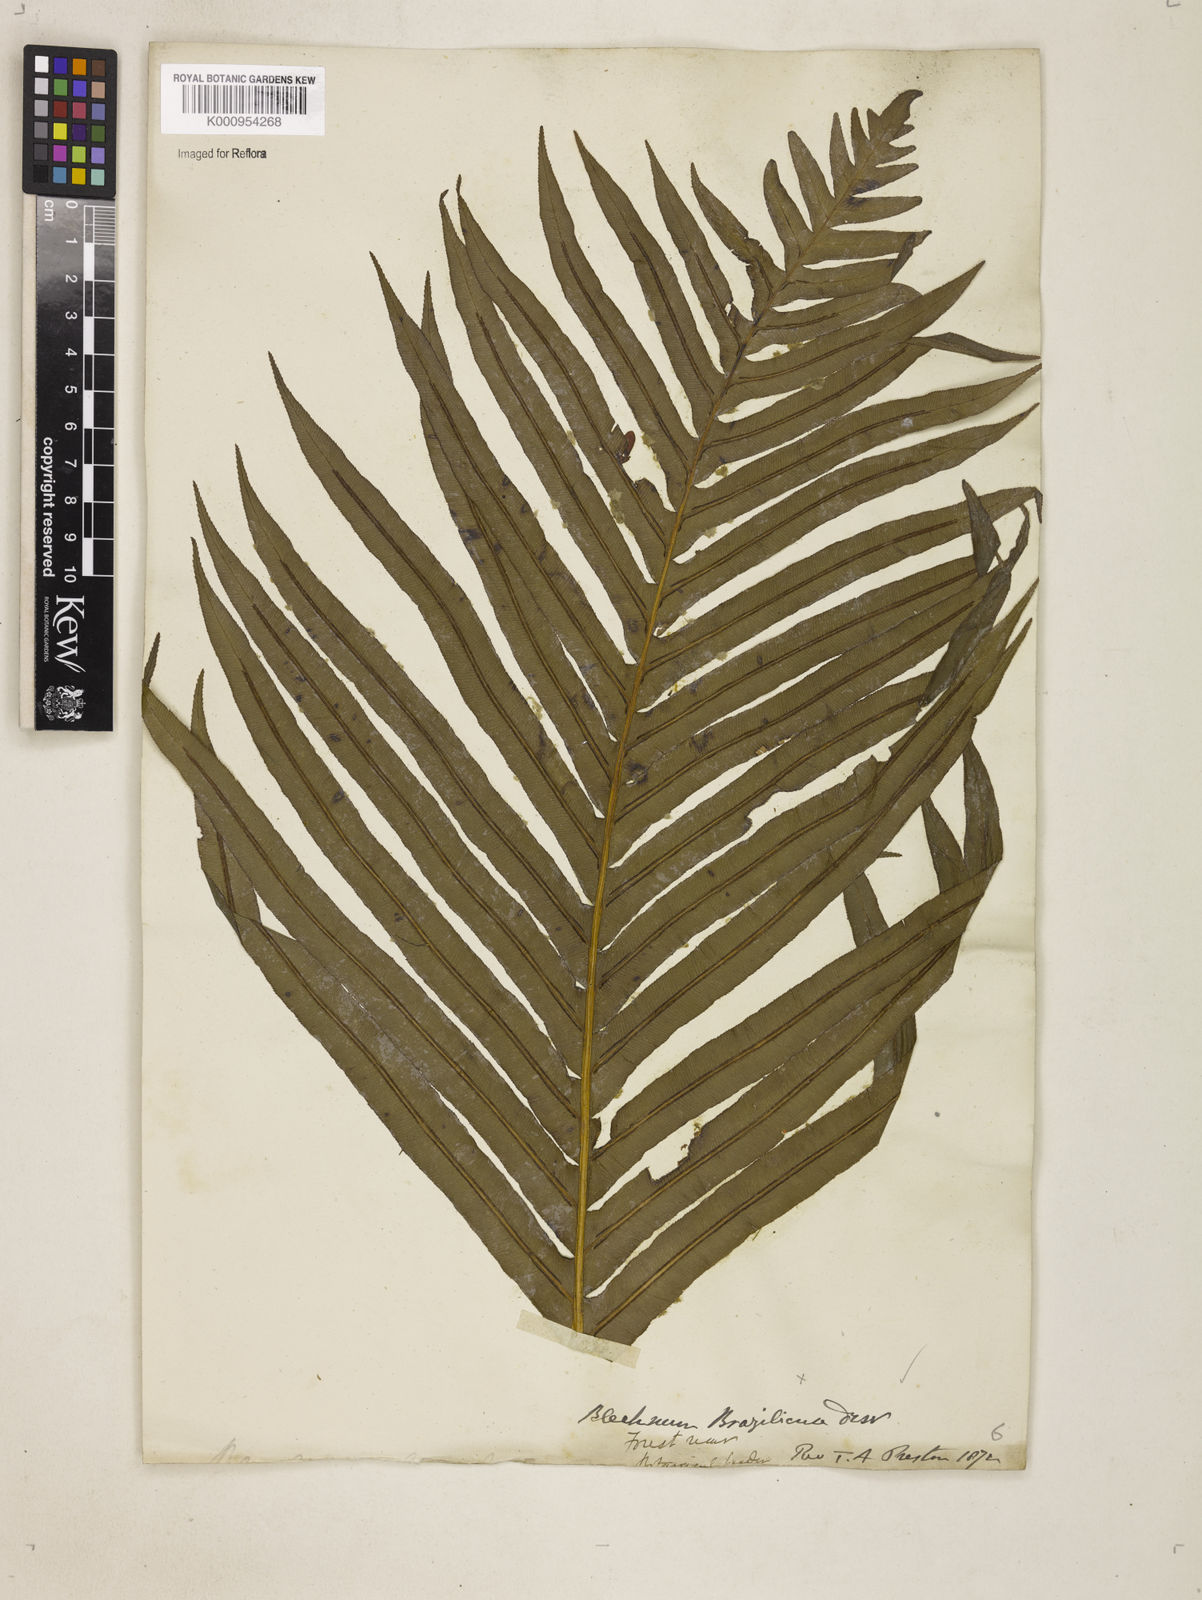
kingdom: Plantae
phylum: Tracheophyta
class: Polypodiopsida
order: Polypodiales
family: Blechnaceae
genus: Neoblechnum
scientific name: Neoblechnum brasiliense
